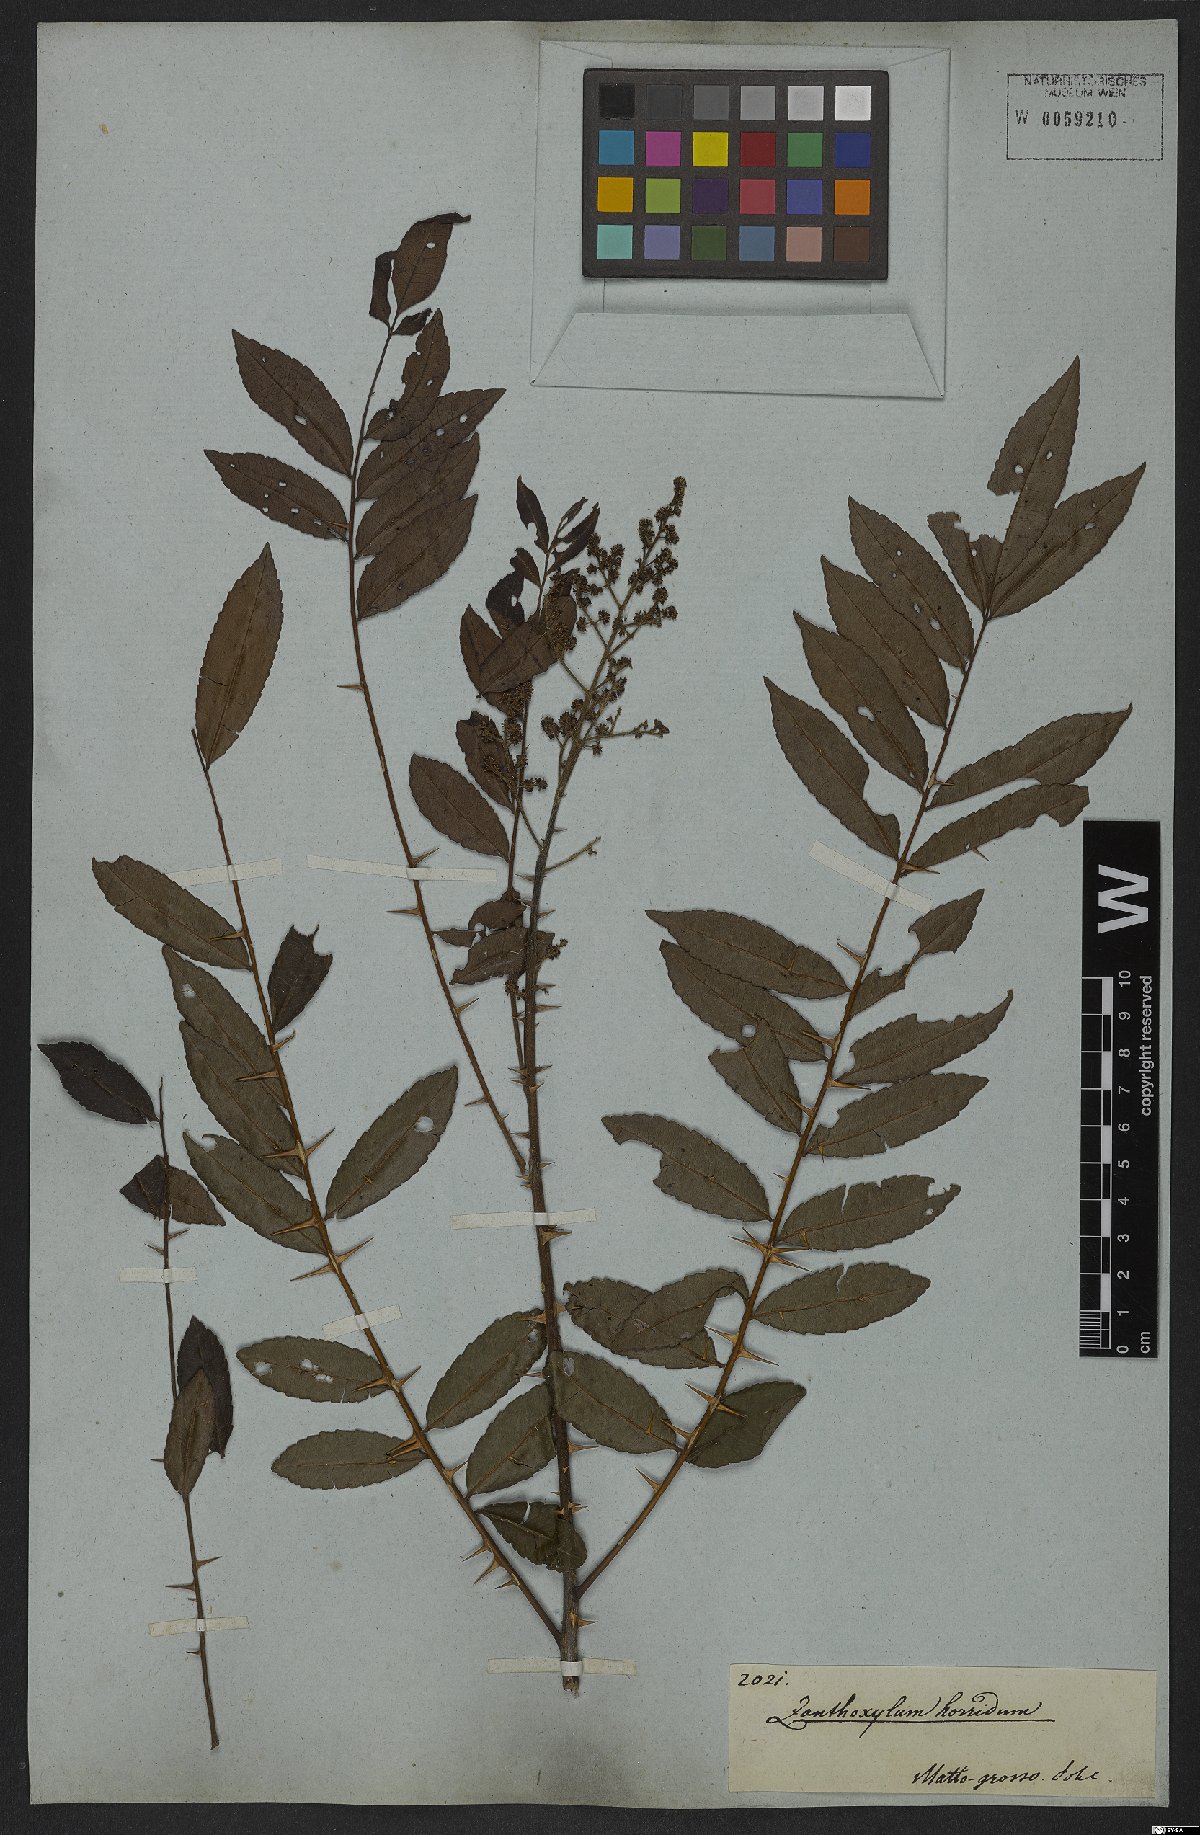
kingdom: Plantae
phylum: Tracheophyta
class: Magnoliopsida
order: Sapindales
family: Rutaceae
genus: Zanthoxylum
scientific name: Zanthoxylum rhoifolium
